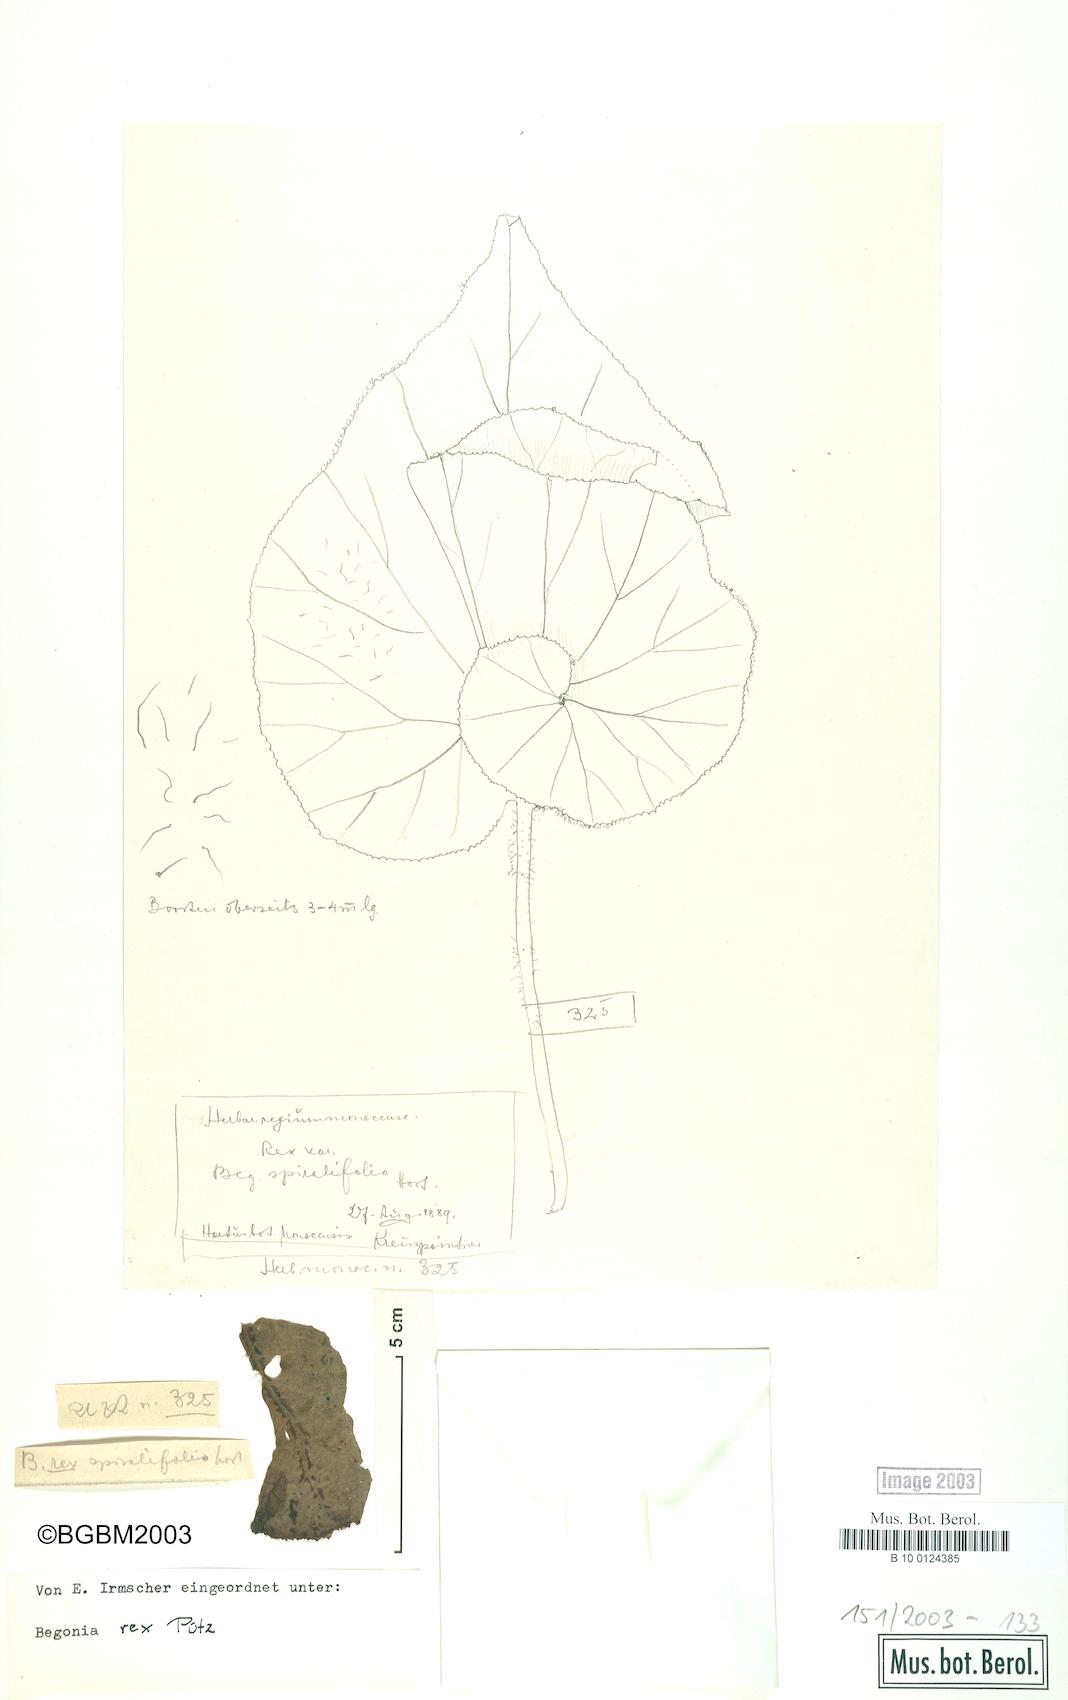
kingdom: Plantae
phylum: Tracheophyta
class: Magnoliopsida
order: Cucurbitales
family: Begoniaceae
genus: Begonia
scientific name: Begonia rex
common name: Painted-leaf begonia
